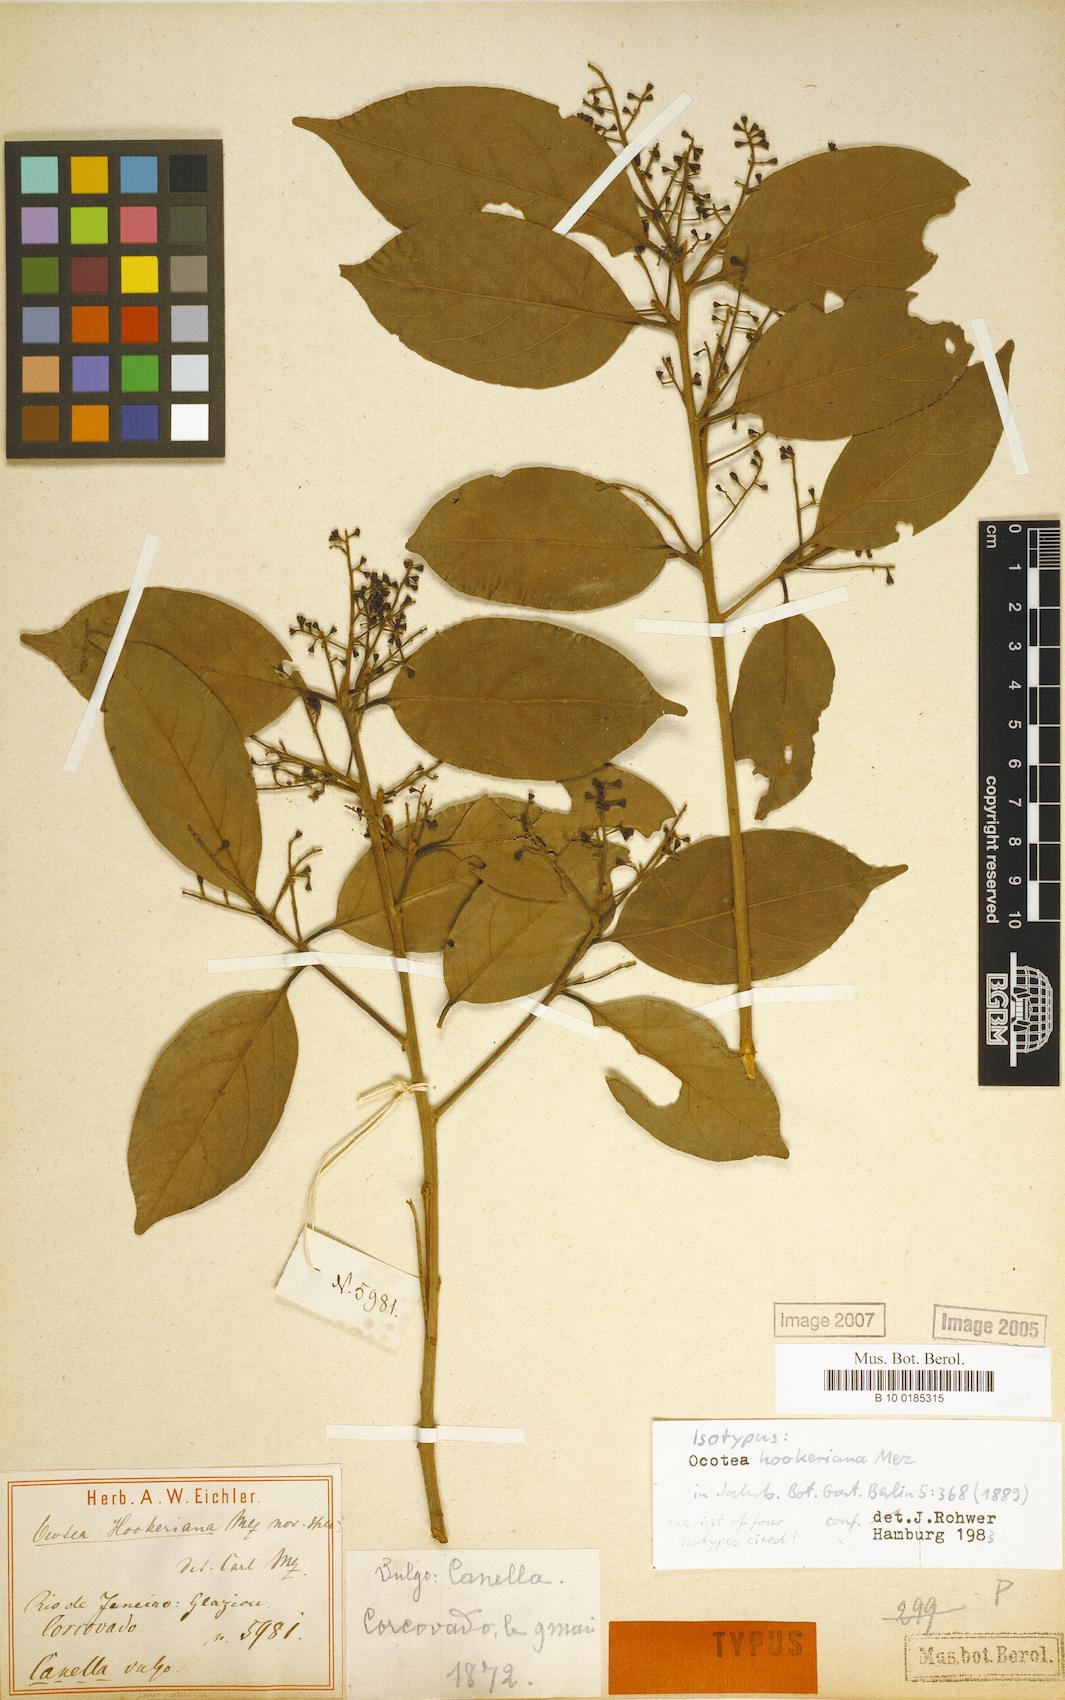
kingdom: Plantae
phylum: Tracheophyta
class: Magnoliopsida
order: Laurales
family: Lauraceae
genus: Mezilaurus
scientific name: Mezilaurus ita-uba
